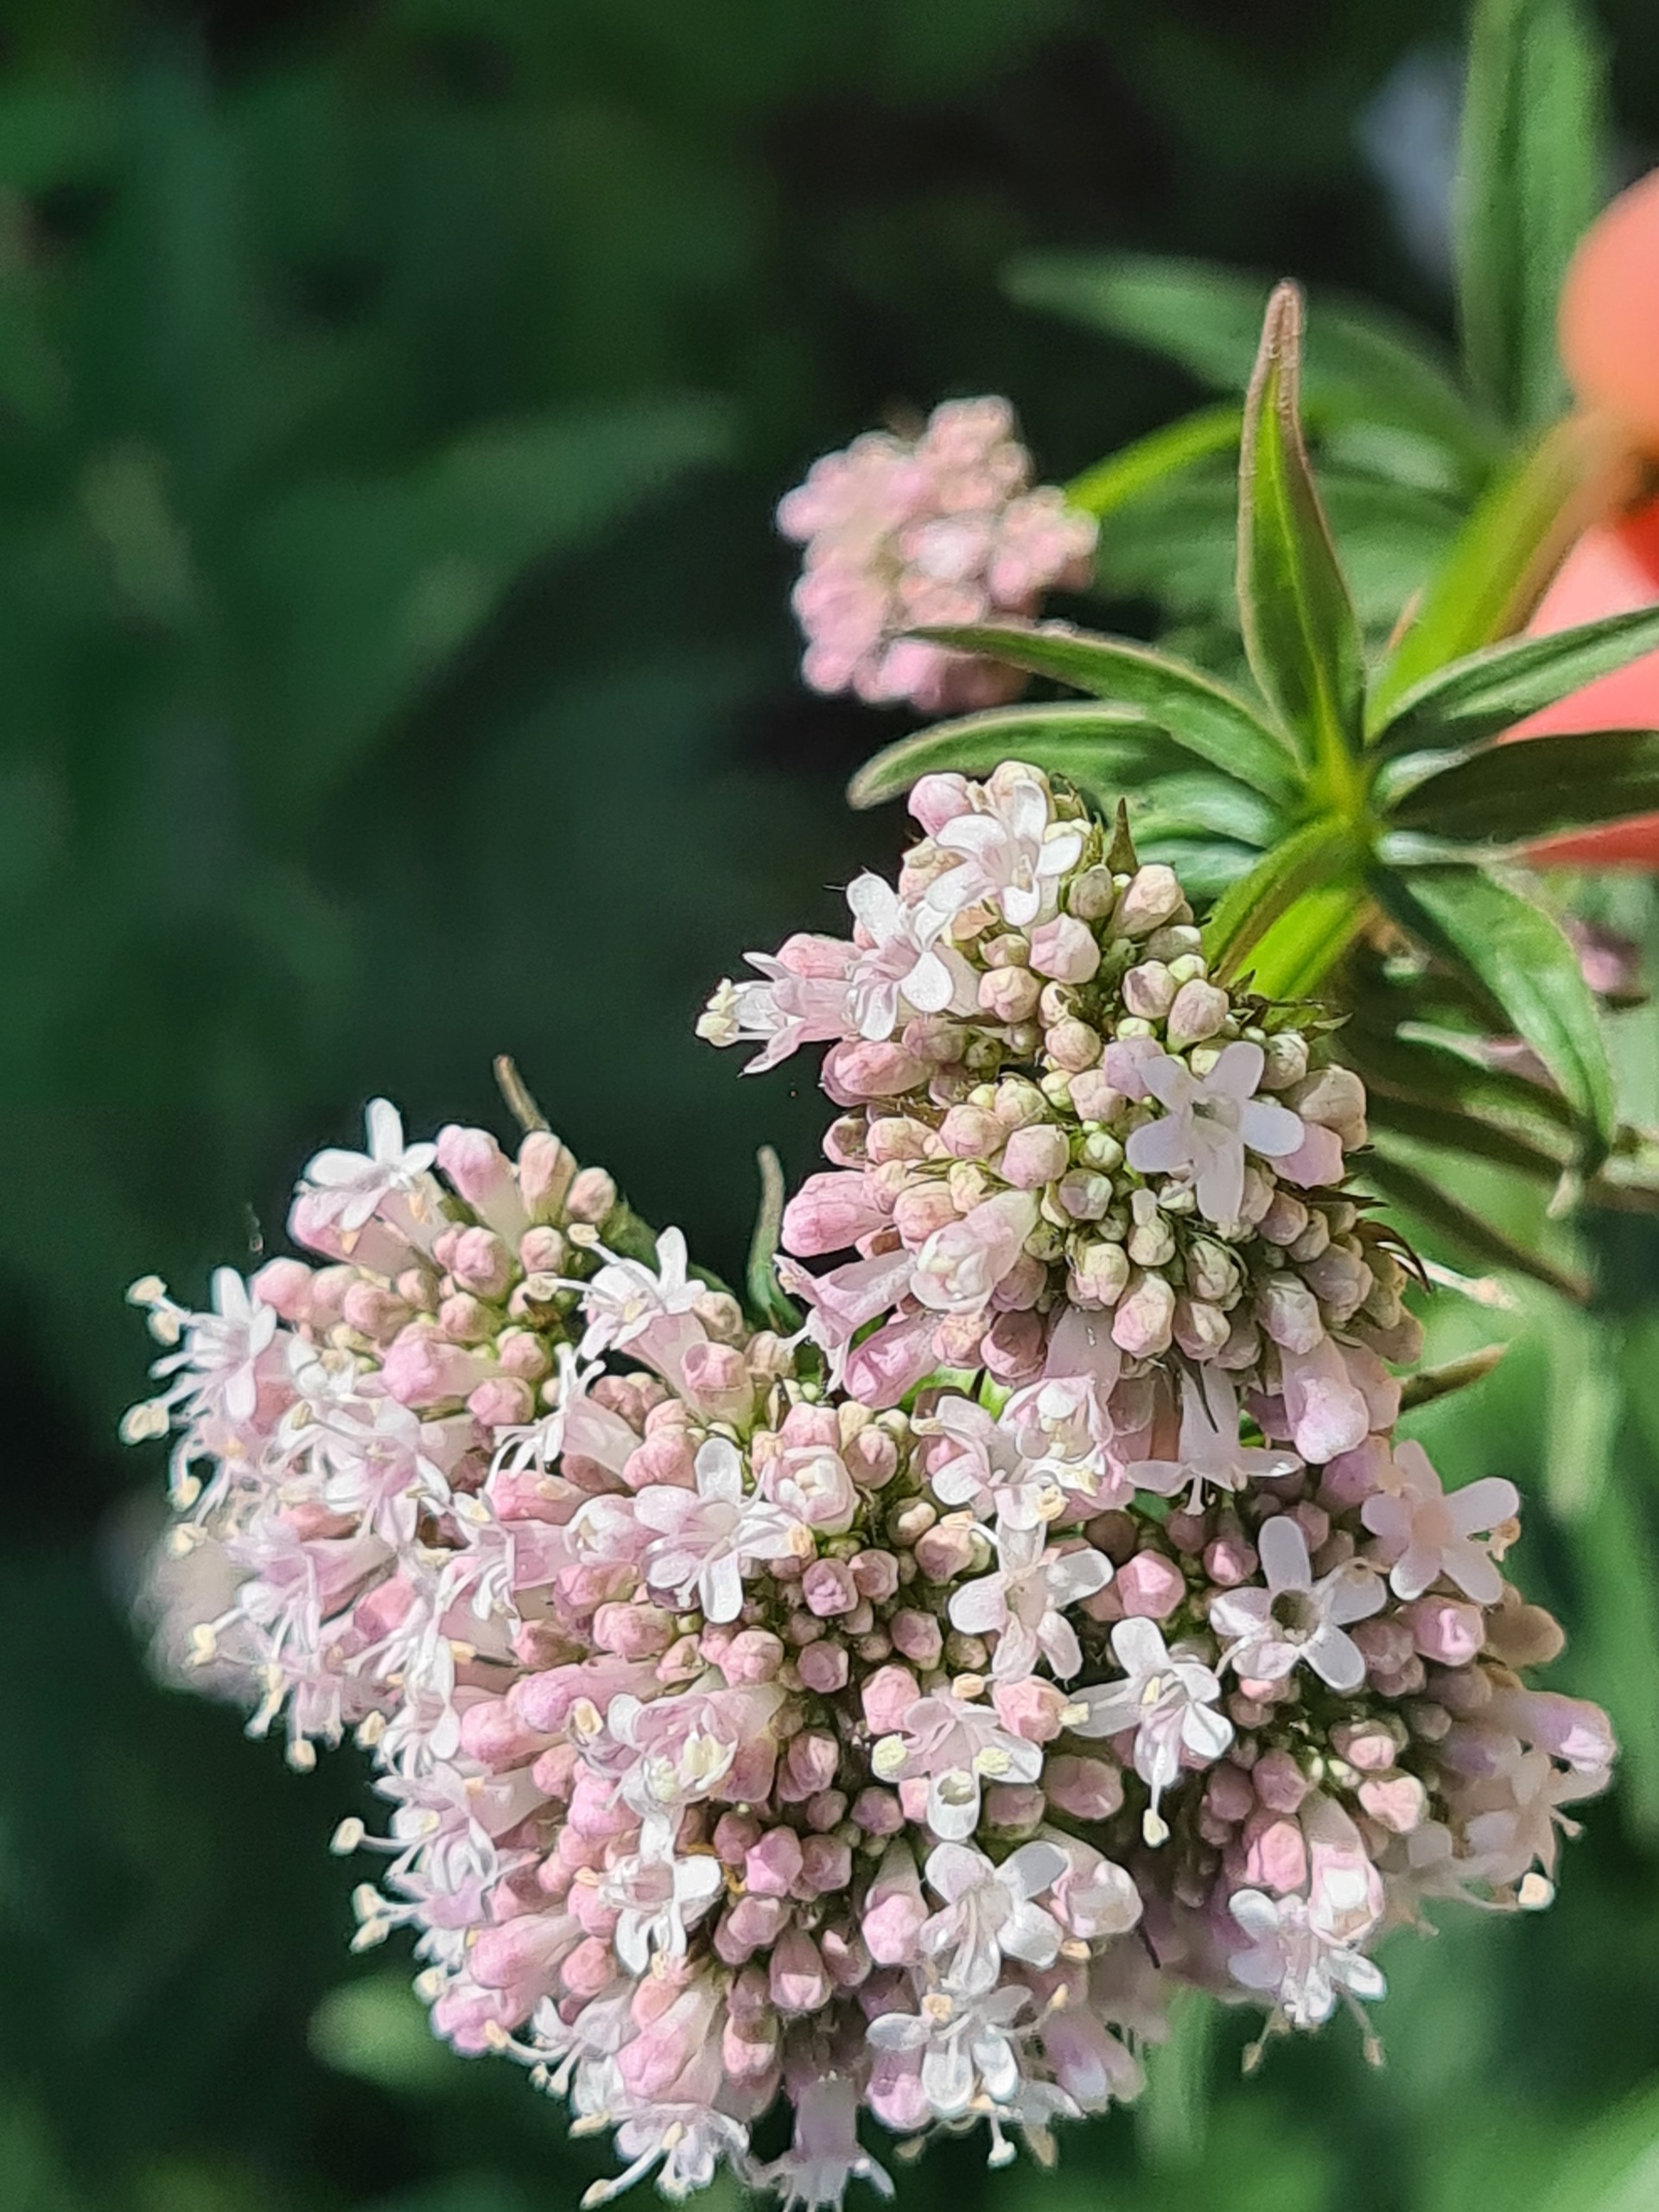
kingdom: Plantae
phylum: Tracheophyta
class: Magnoliopsida
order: Dipsacales
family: Caprifoliaceae
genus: Valeriana
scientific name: Valeriana sambucifolia
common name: Hyldebladet baldrian
